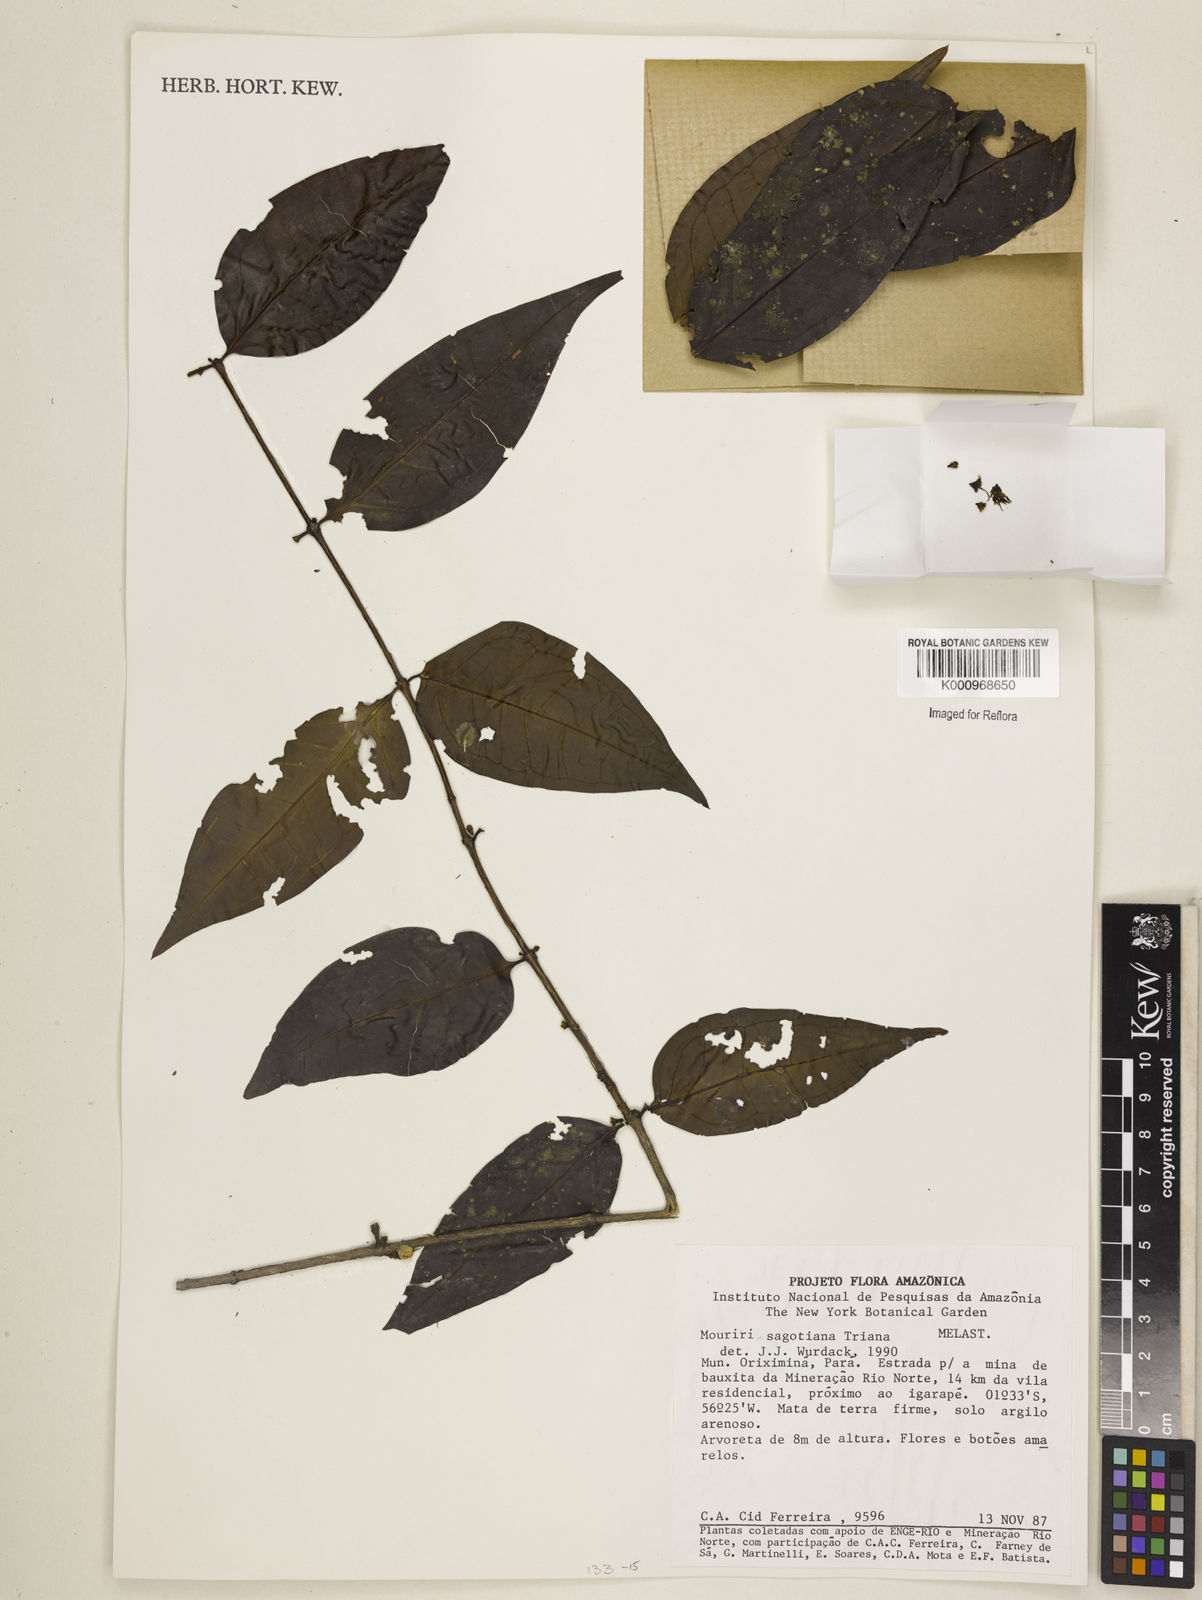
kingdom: Plantae
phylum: Tracheophyta
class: Magnoliopsida
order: Myrtales
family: Melastomataceae
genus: Mouriri
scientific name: Mouriri sagotiana
